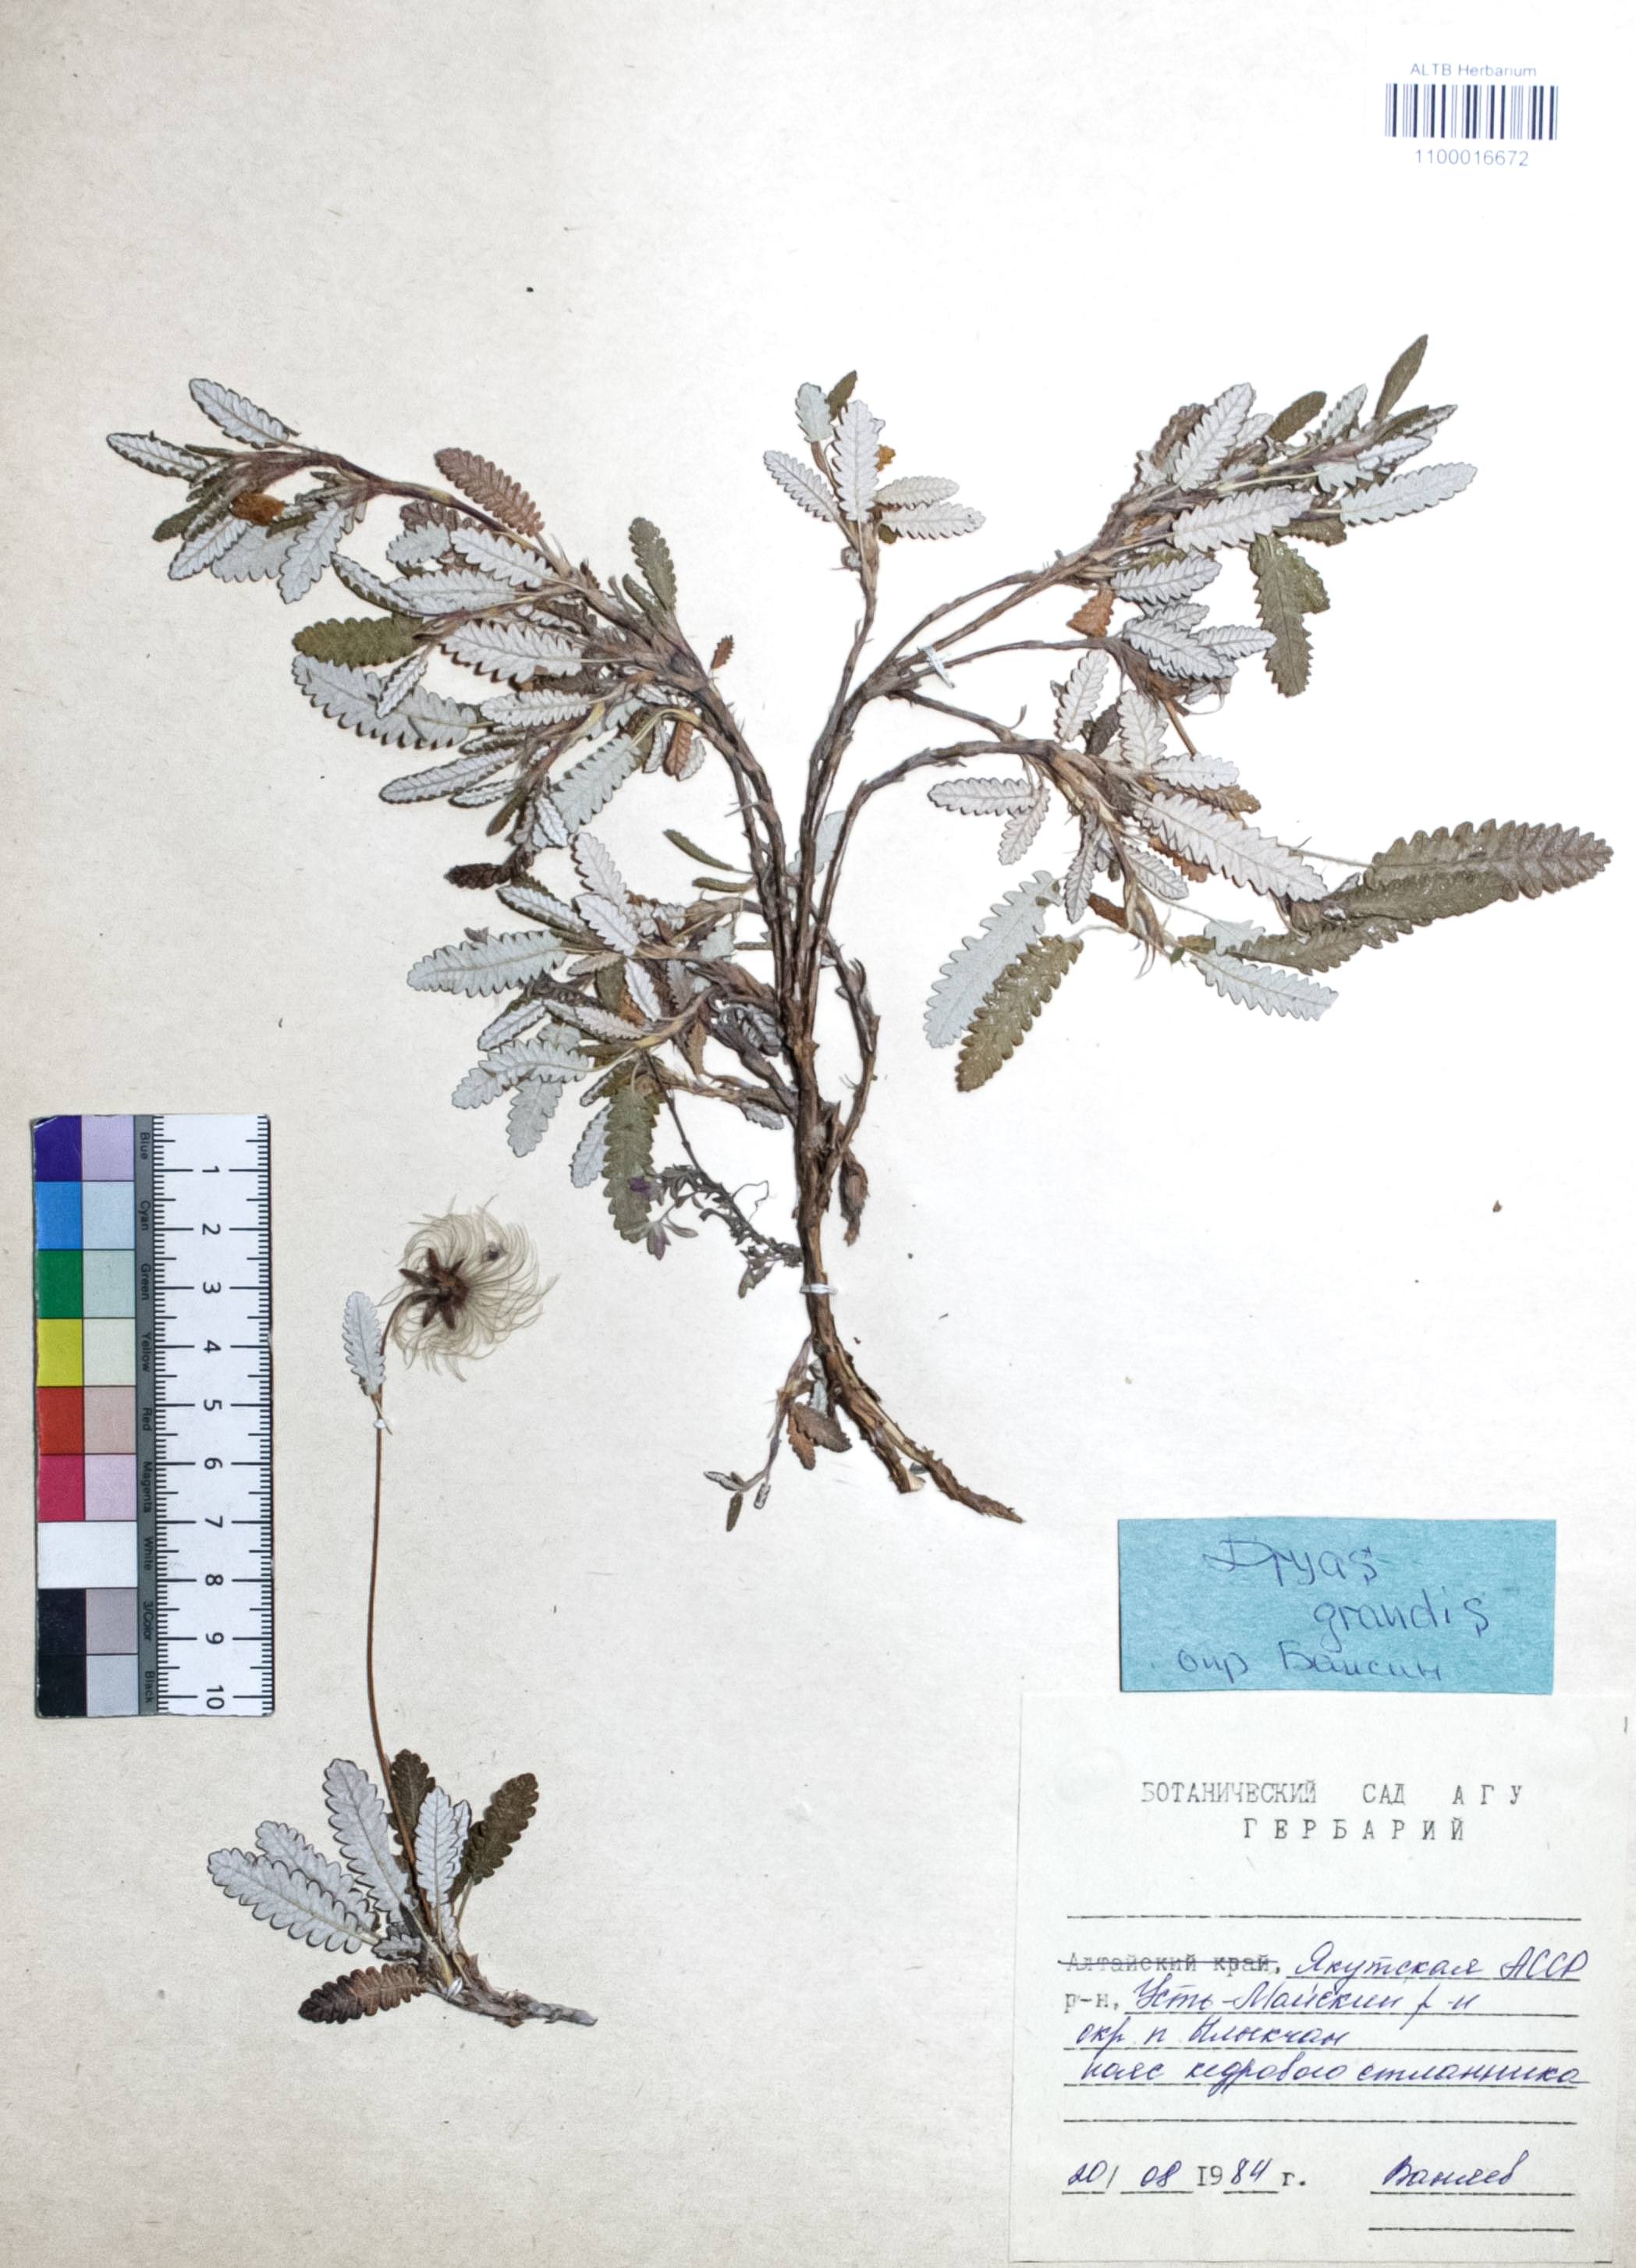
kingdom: Plantae
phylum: Tracheophyta
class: Magnoliopsida
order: Rosales
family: Rosaceae
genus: Dryas
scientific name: Dryas grandis
